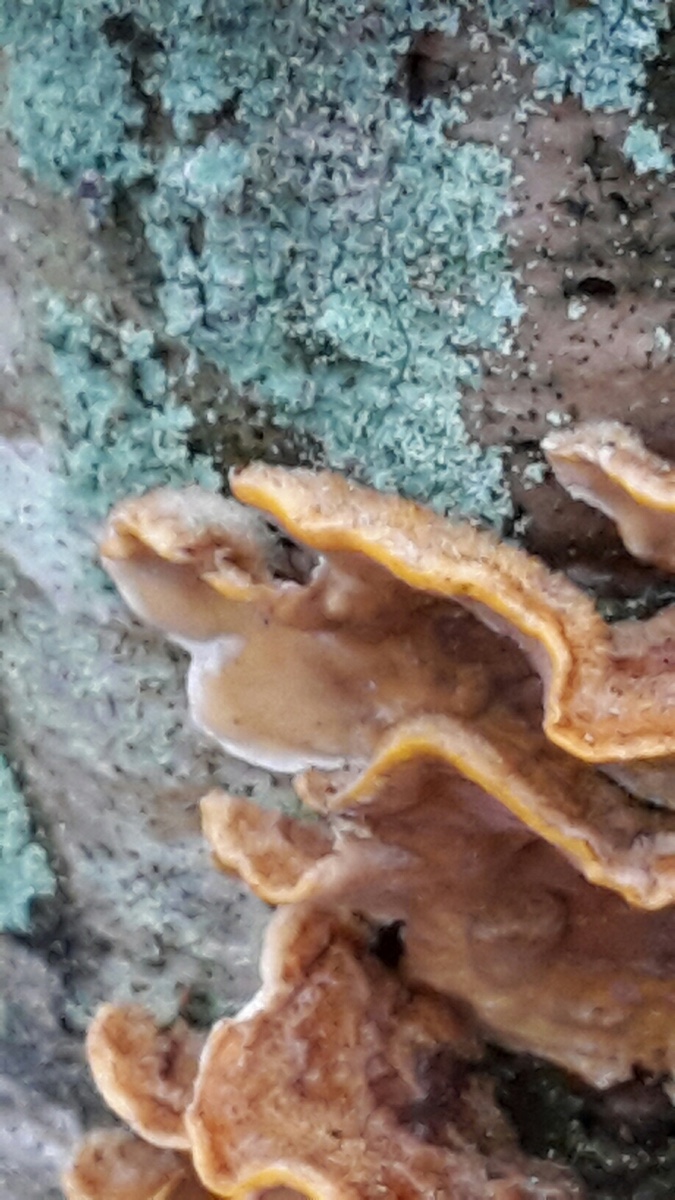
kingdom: Fungi
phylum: Basidiomycota
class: Agaricomycetes
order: Russulales
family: Stereaceae
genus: Stereum
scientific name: Stereum hirsutum
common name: håret lædersvamp
